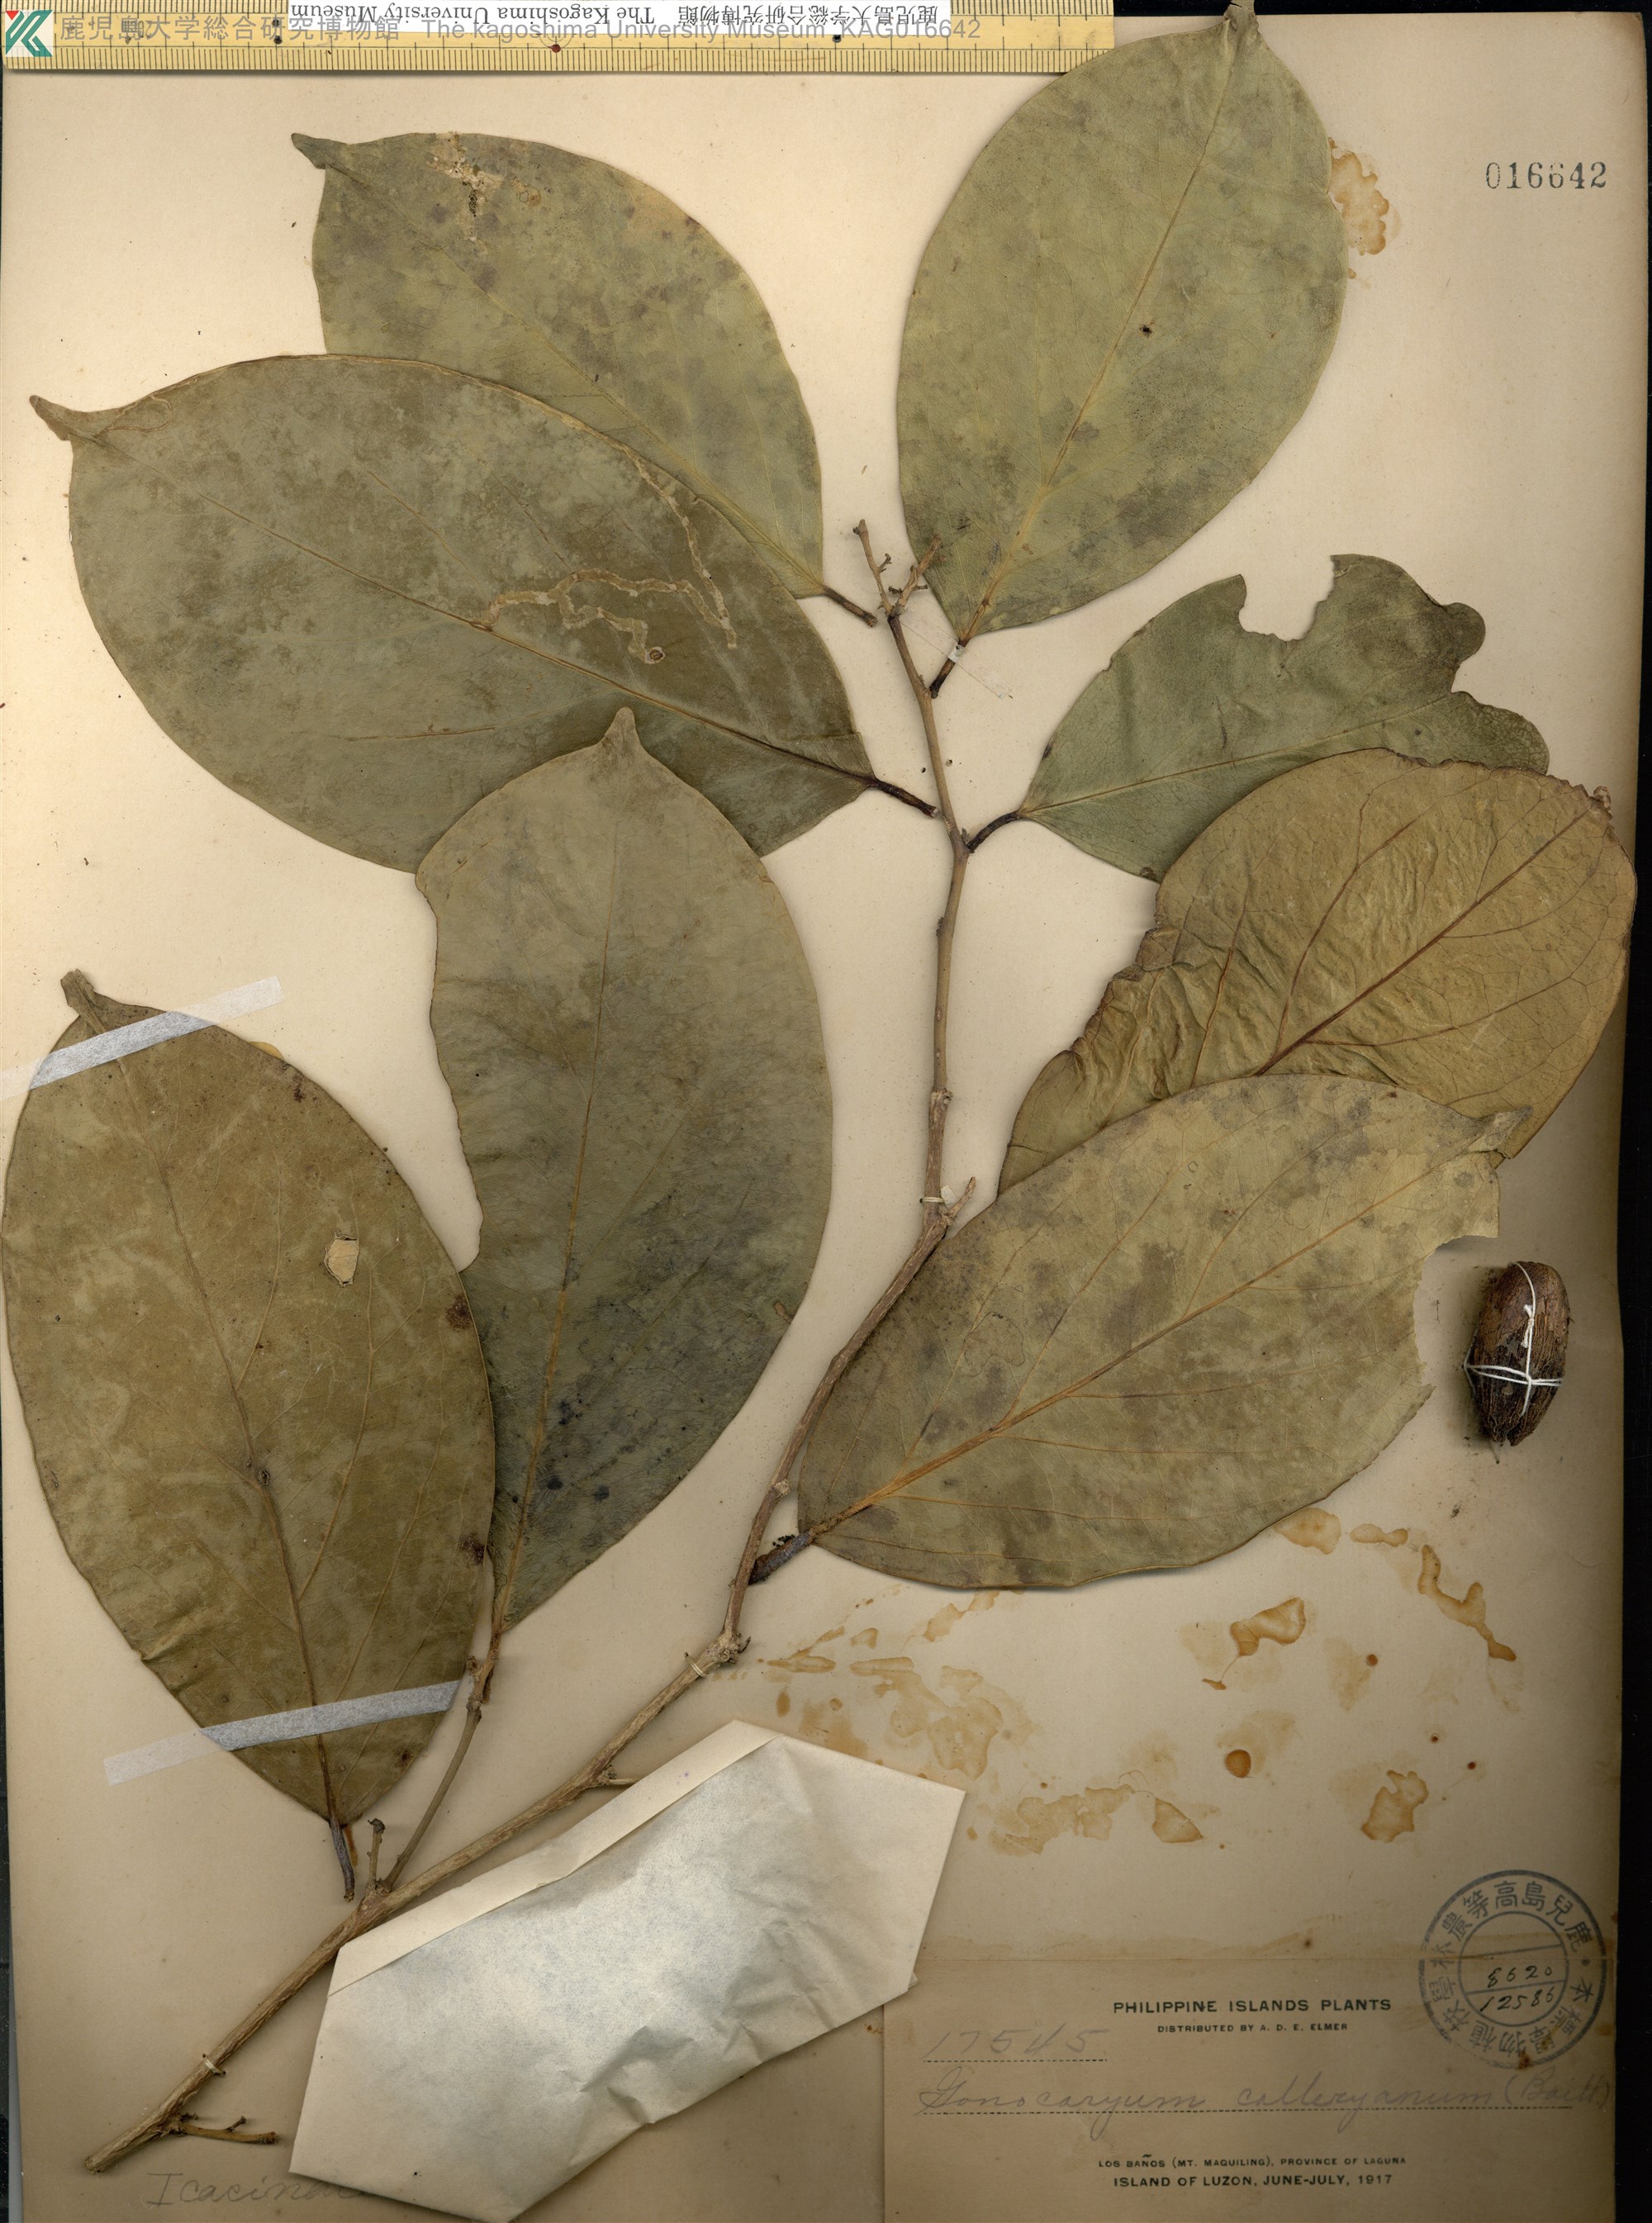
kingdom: Plantae
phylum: Tracheophyta
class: Magnoliopsida
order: Cardiopteridales
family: Cardiopteridaceae
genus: Gonocaryum
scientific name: Gonocaryum calleryanum
